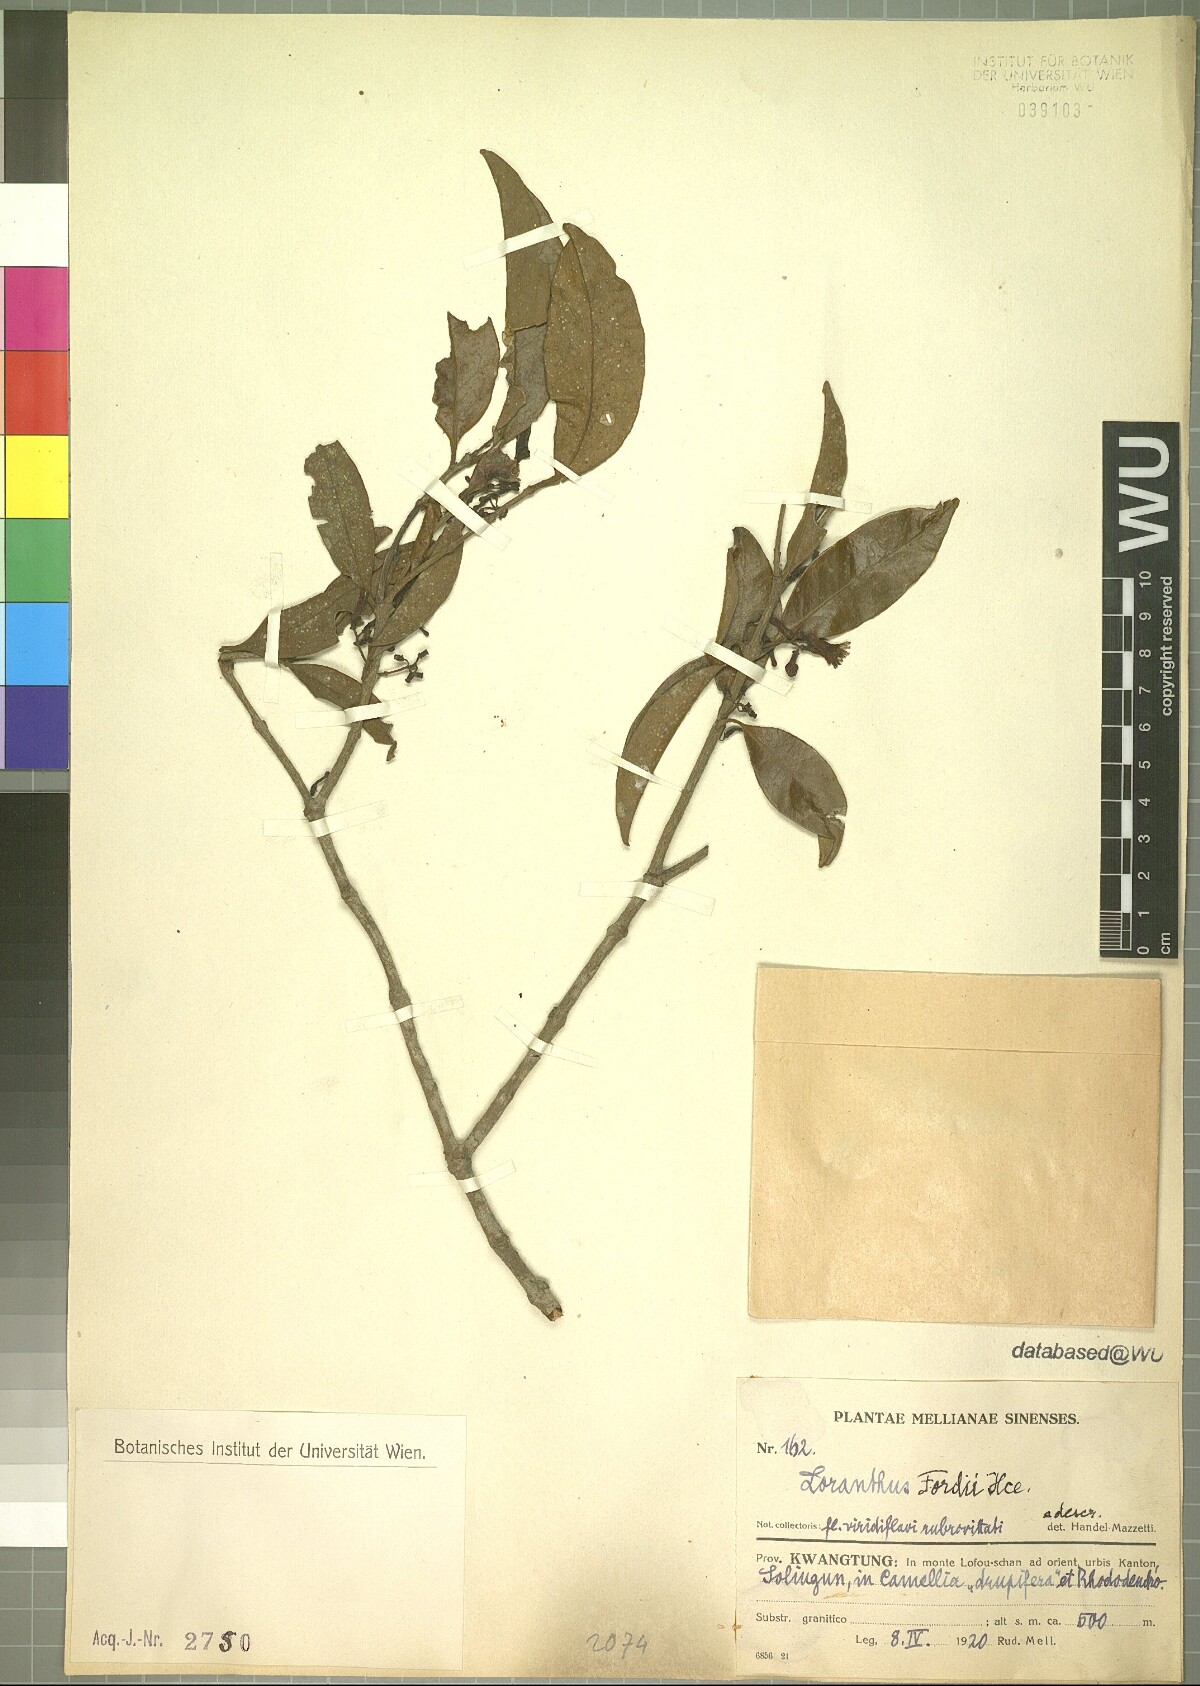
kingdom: Plantae
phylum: Tracheophyta
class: Magnoliopsida
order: Santalales
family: Loranthaceae
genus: Macrosolen
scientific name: Macrosolen cochinchinensis
